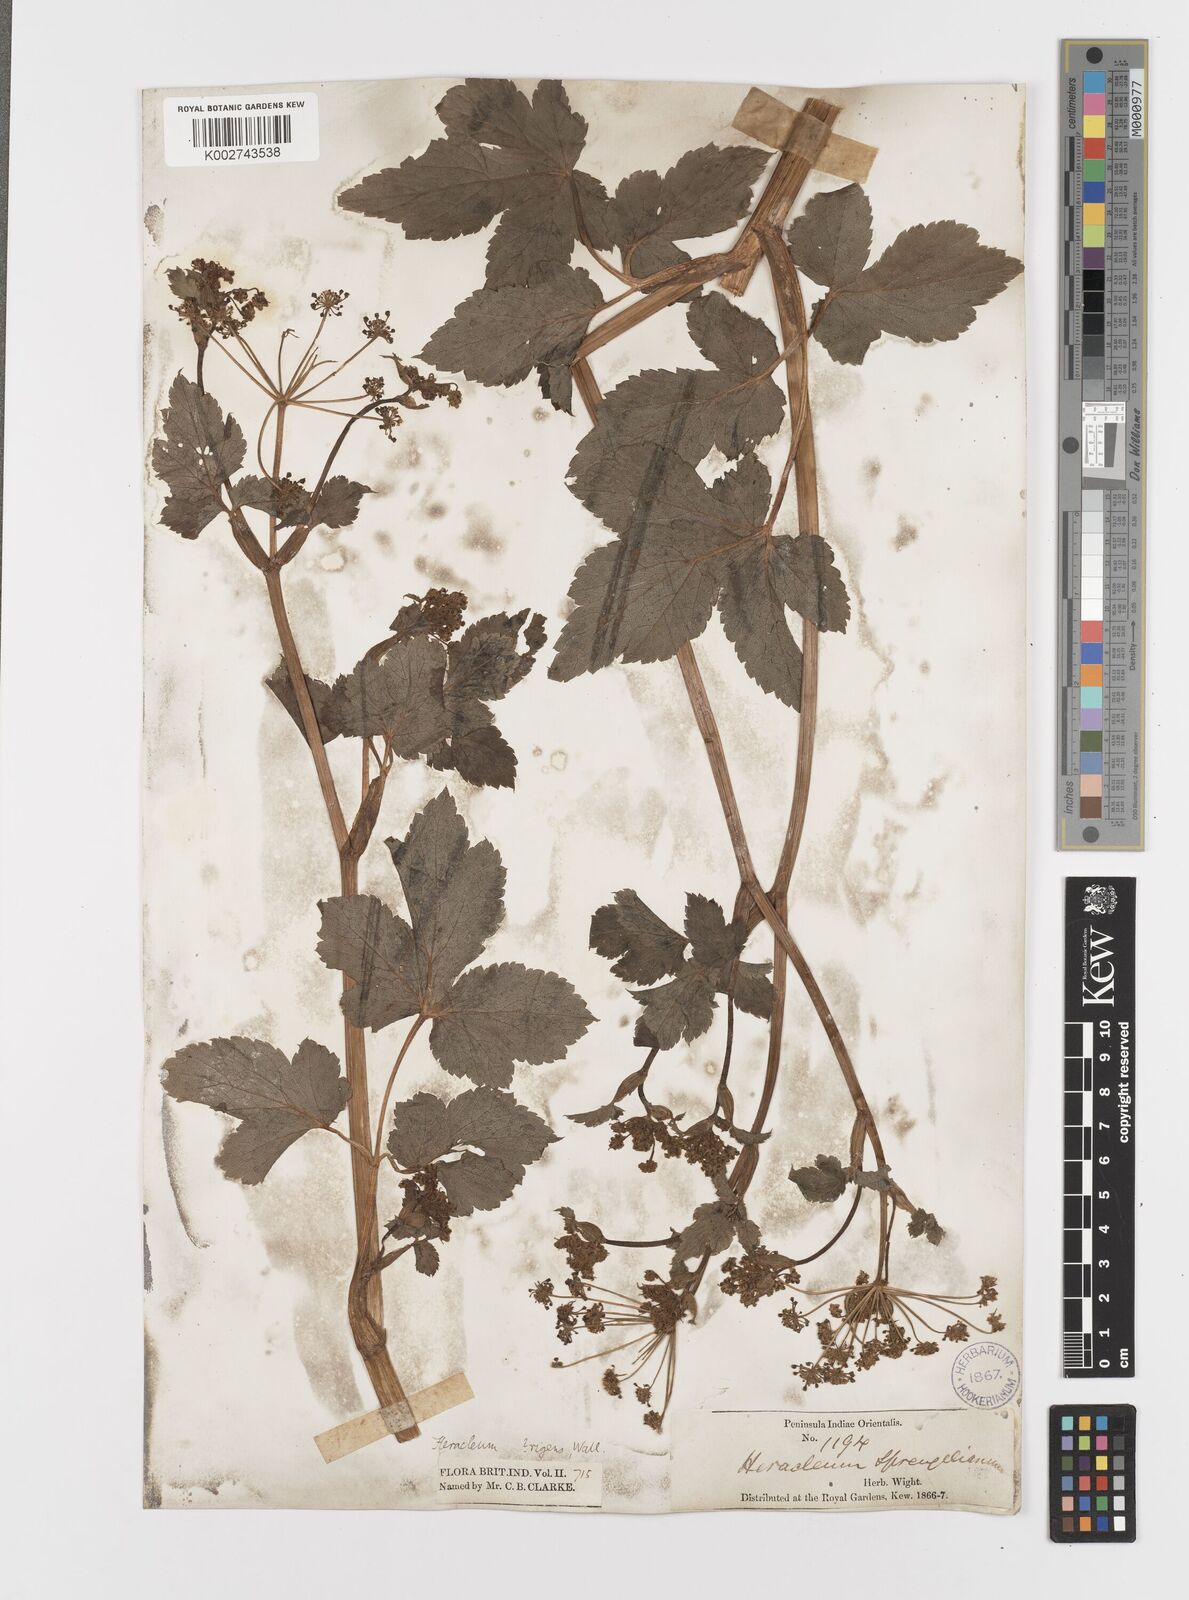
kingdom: Plantae
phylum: Tracheophyta
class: Magnoliopsida
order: Apiales
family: Apiaceae
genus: Tetrataenium
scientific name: Tetrataenium rigens
